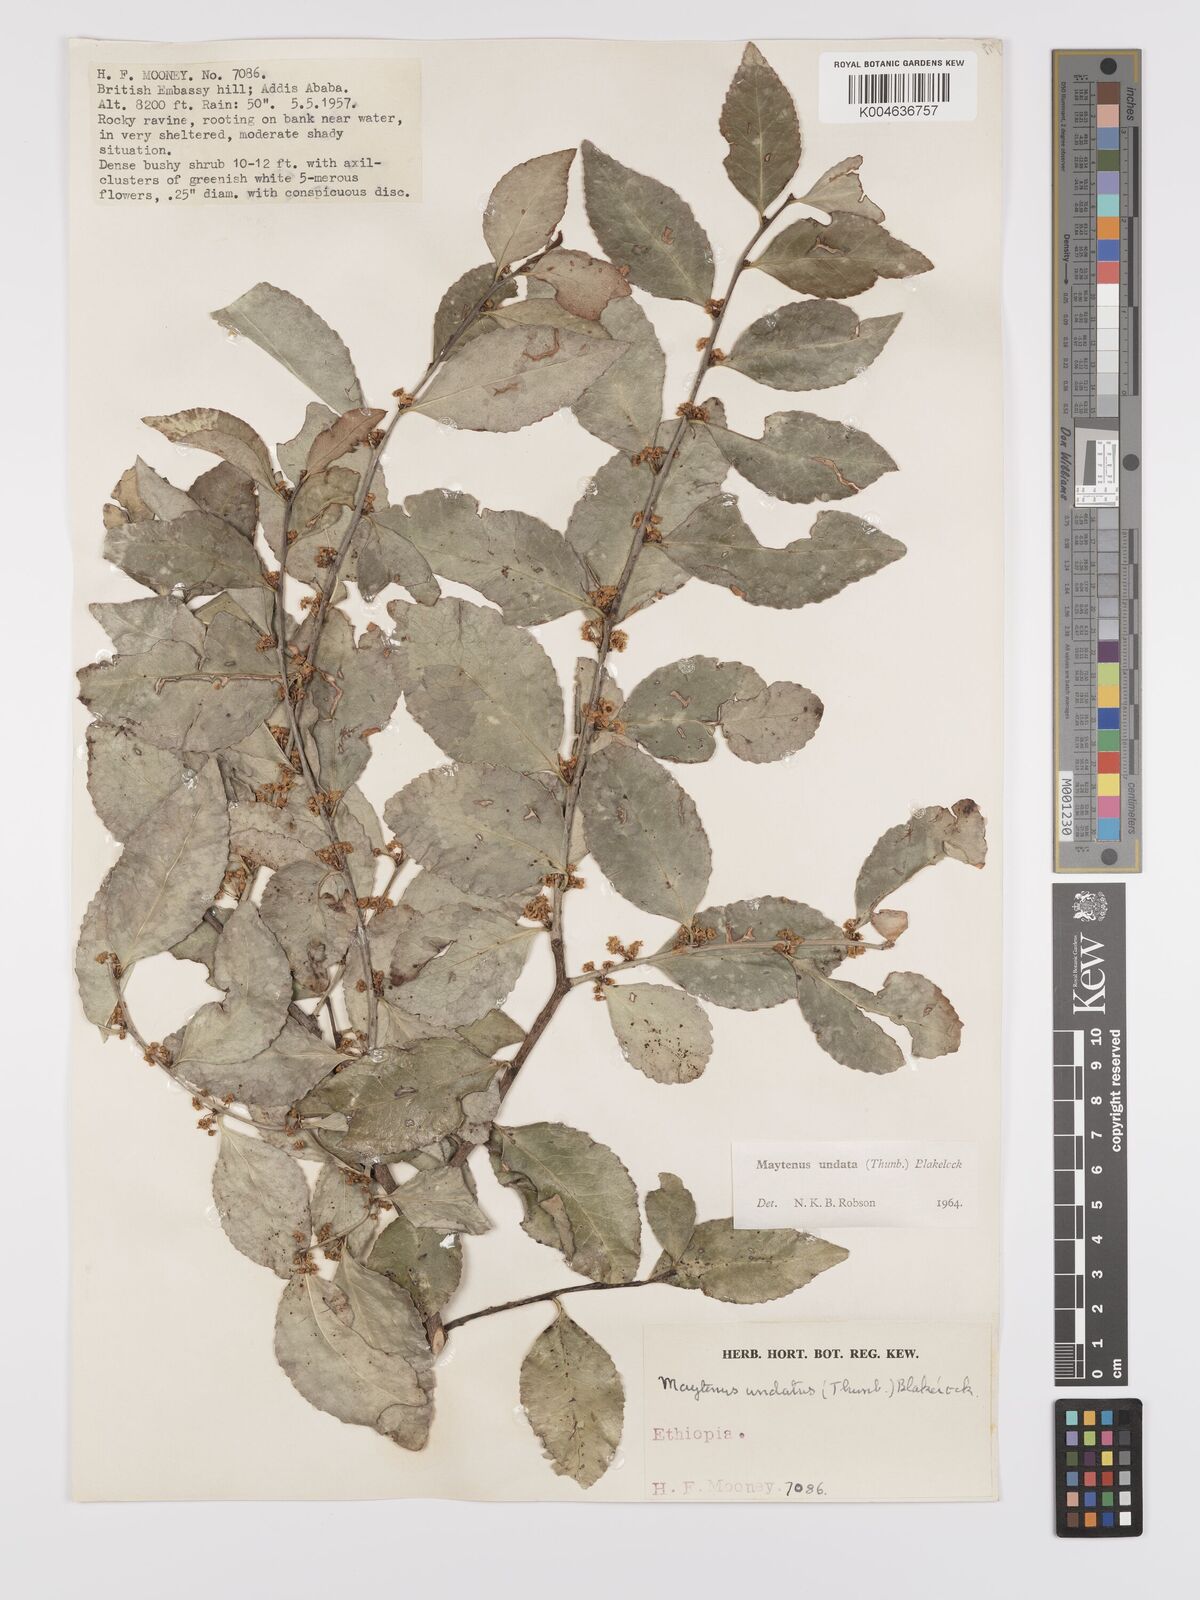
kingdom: Plantae
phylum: Tracheophyta
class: Magnoliopsida
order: Celastrales
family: Celastraceae
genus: Gymnosporia
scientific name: Gymnosporia undata
